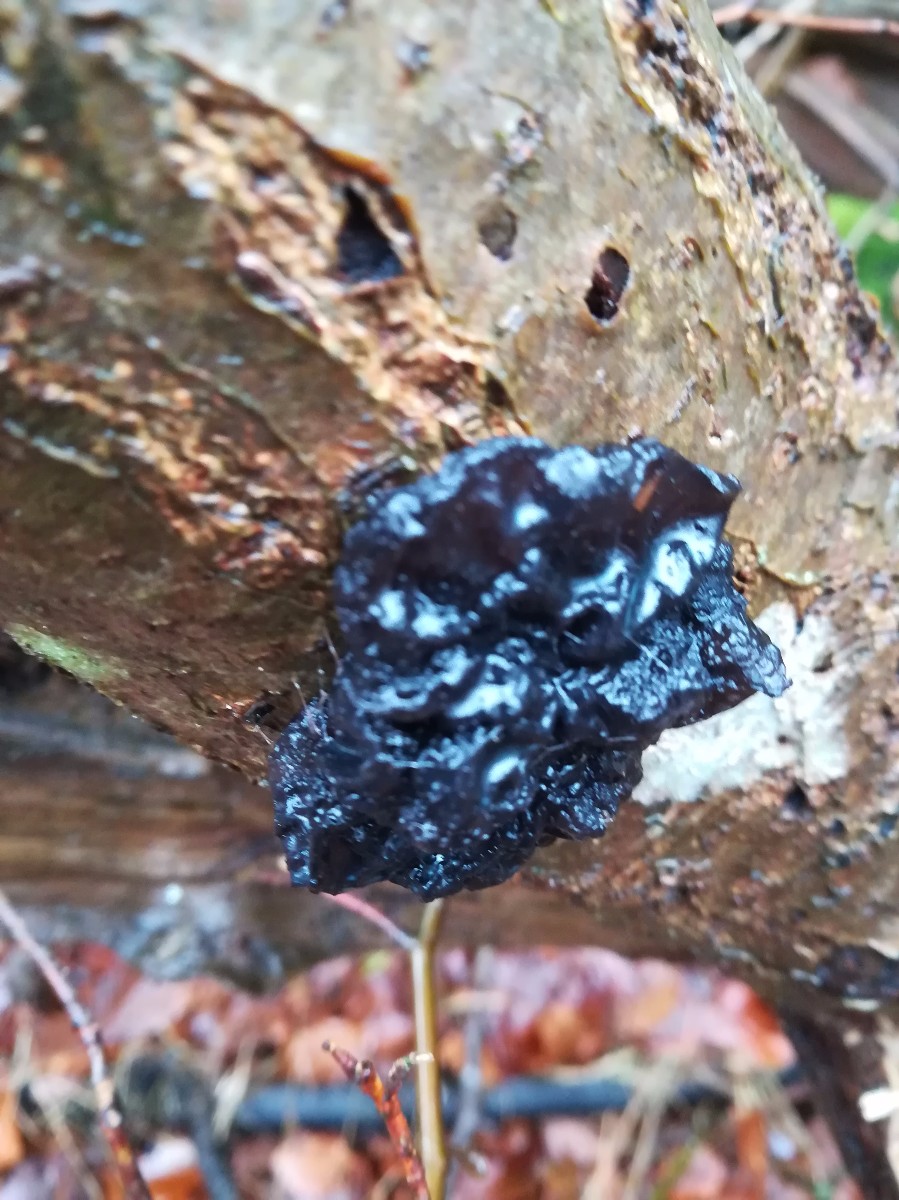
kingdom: Fungi
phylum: Basidiomycota
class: Agaricomycetes
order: Auriculariales
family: Auriculariaceae
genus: Exidia
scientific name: Exidia glandulosa
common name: ege-bævretop
